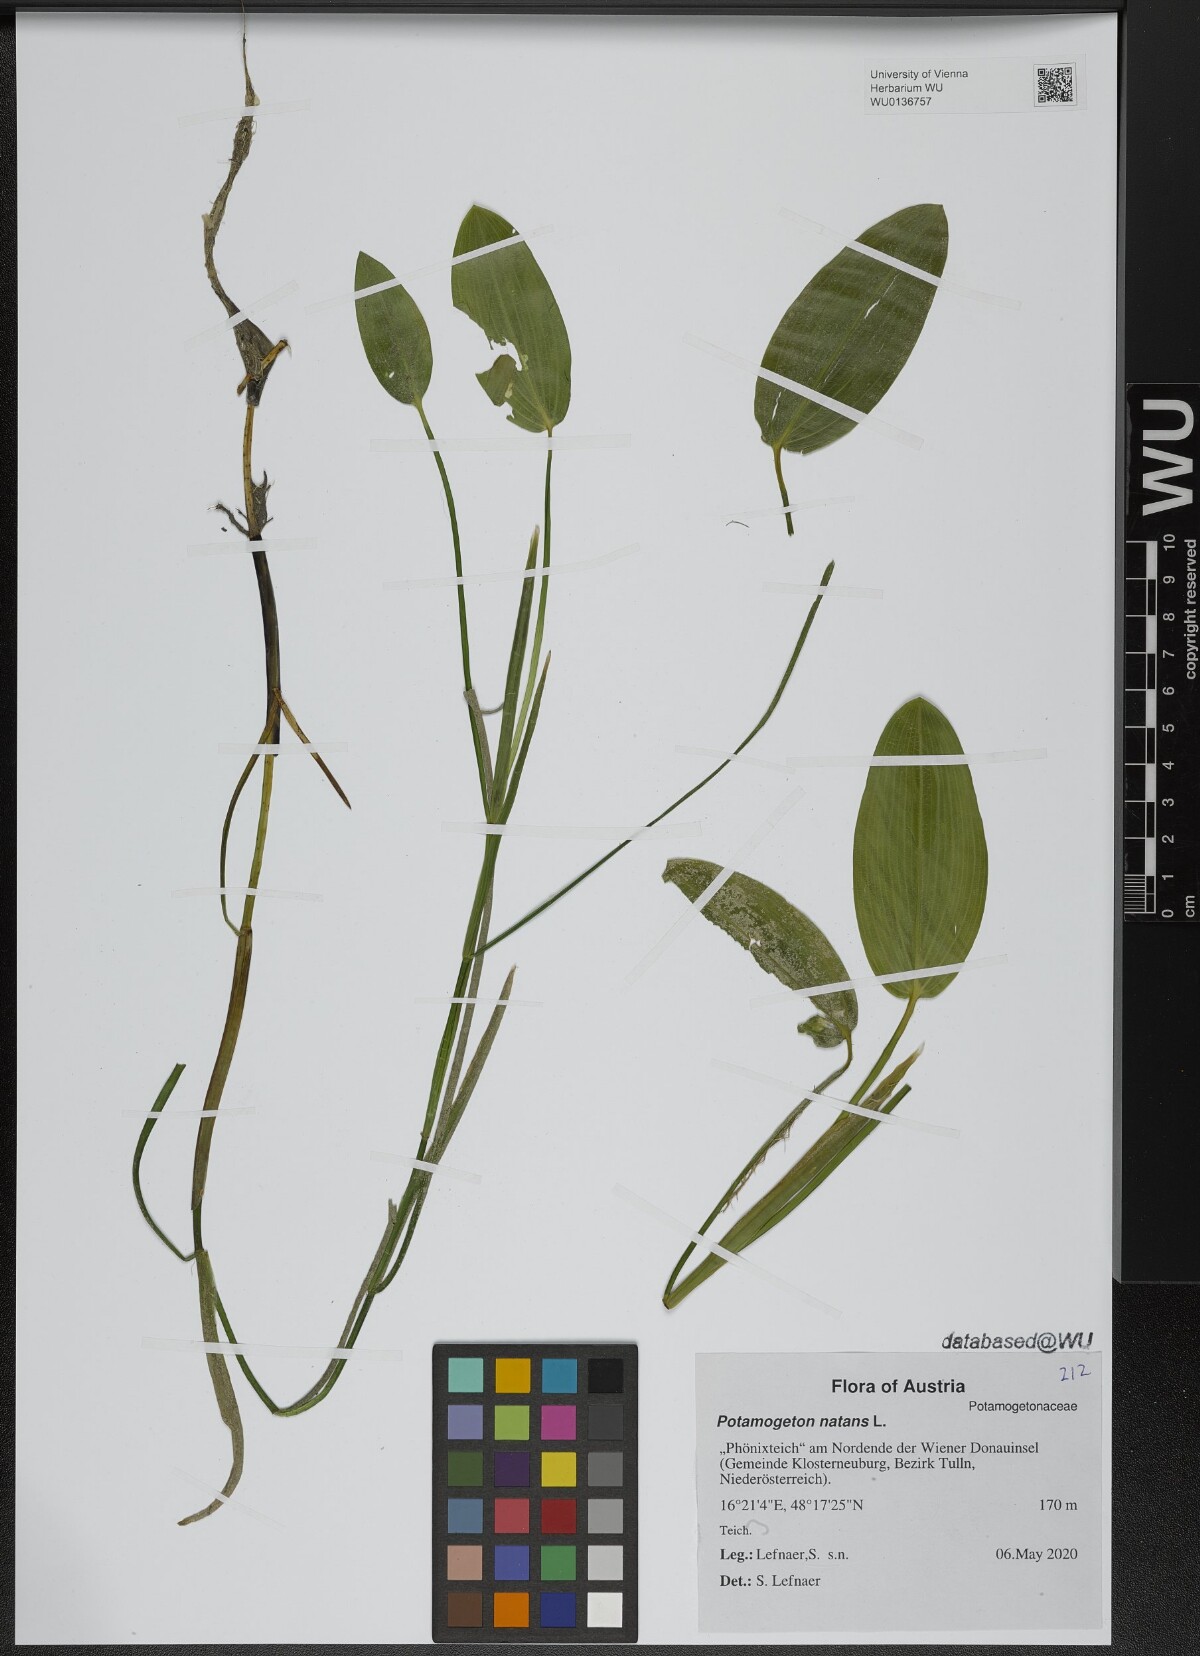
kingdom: Plantae
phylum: Tracheophyta
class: Liliopsida
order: Alismatales
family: Potamogetonaceae
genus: Potamogeton
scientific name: Potamogeton natans
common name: Broad-leaved pondweed
